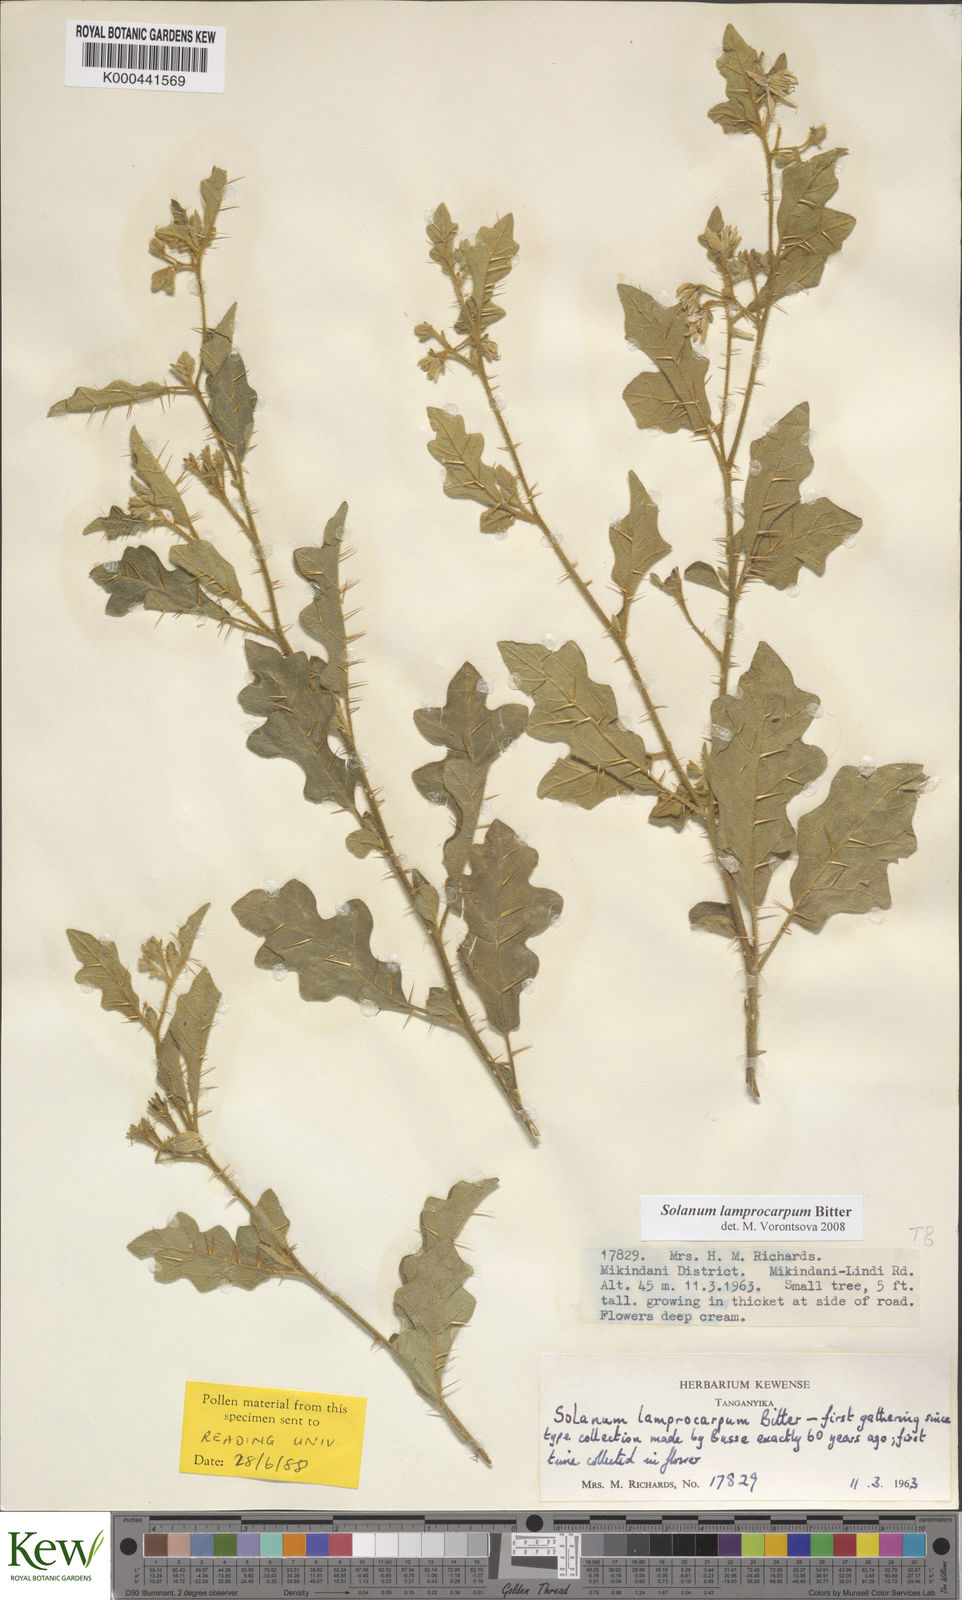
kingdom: Plantae
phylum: Tracheophyta
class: Magnoliopsida
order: Solanales
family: Solanaceae
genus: Solanum
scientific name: Solanum lamprocarpum
